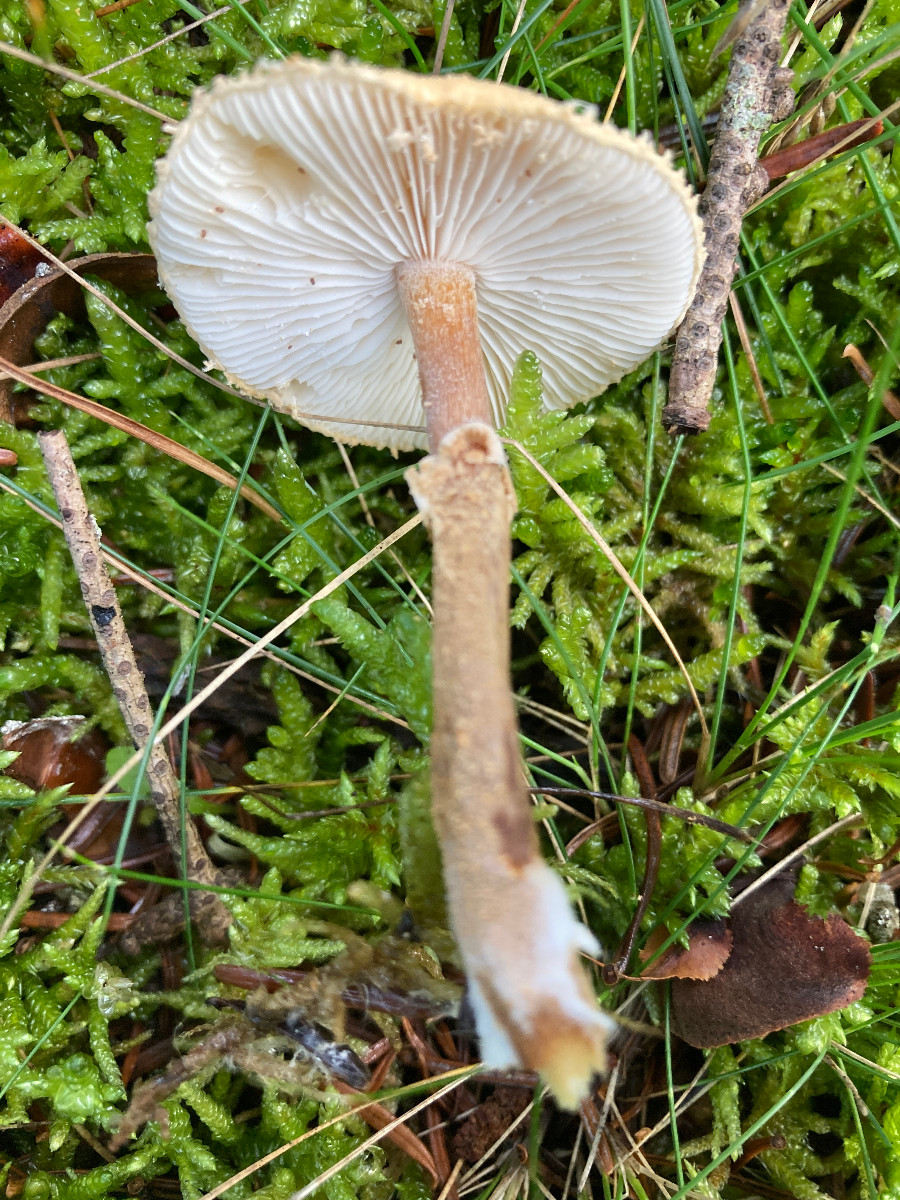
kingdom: Fungi
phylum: Basidiomycota
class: Agaricomycetes
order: Agaricales
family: Tricholomataceae
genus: Cystoderma
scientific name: Cystoderma amianthinum
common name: okkergul grynhat
